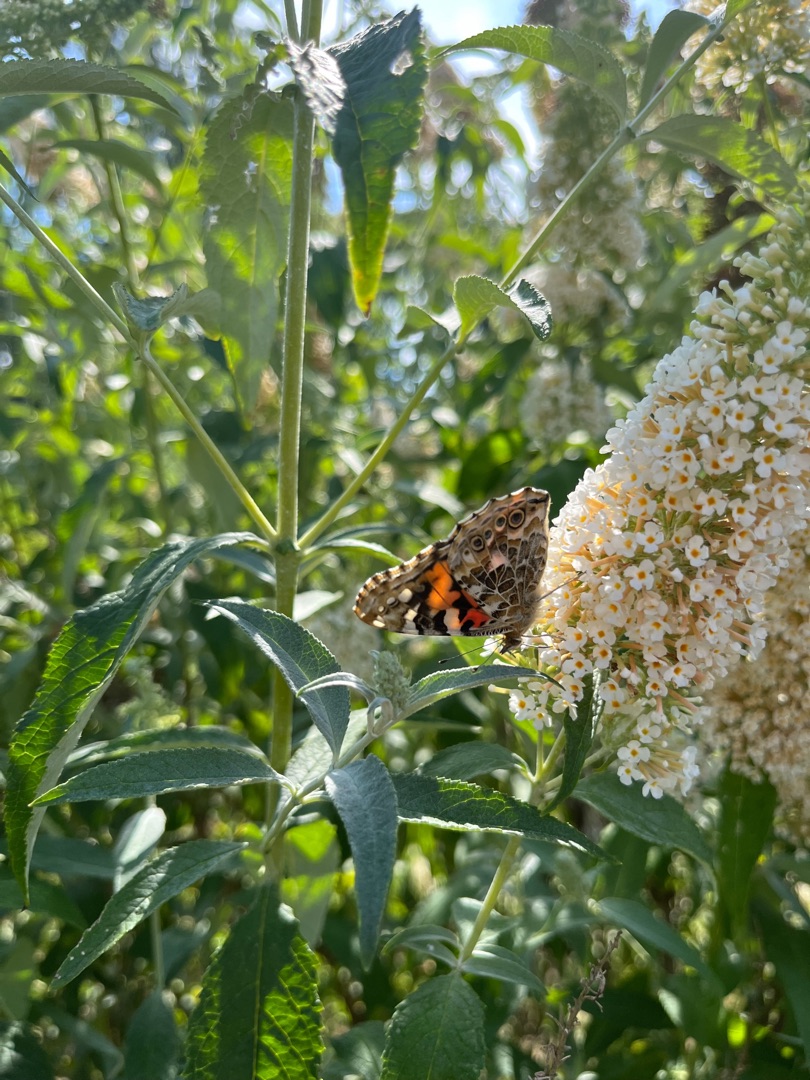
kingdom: Animalia
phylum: Arthropoda
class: Insecta
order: Lepidoptera
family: Nymphalidae
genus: Vanessa
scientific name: Vanessa cardui
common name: Tidselsommerfugl
